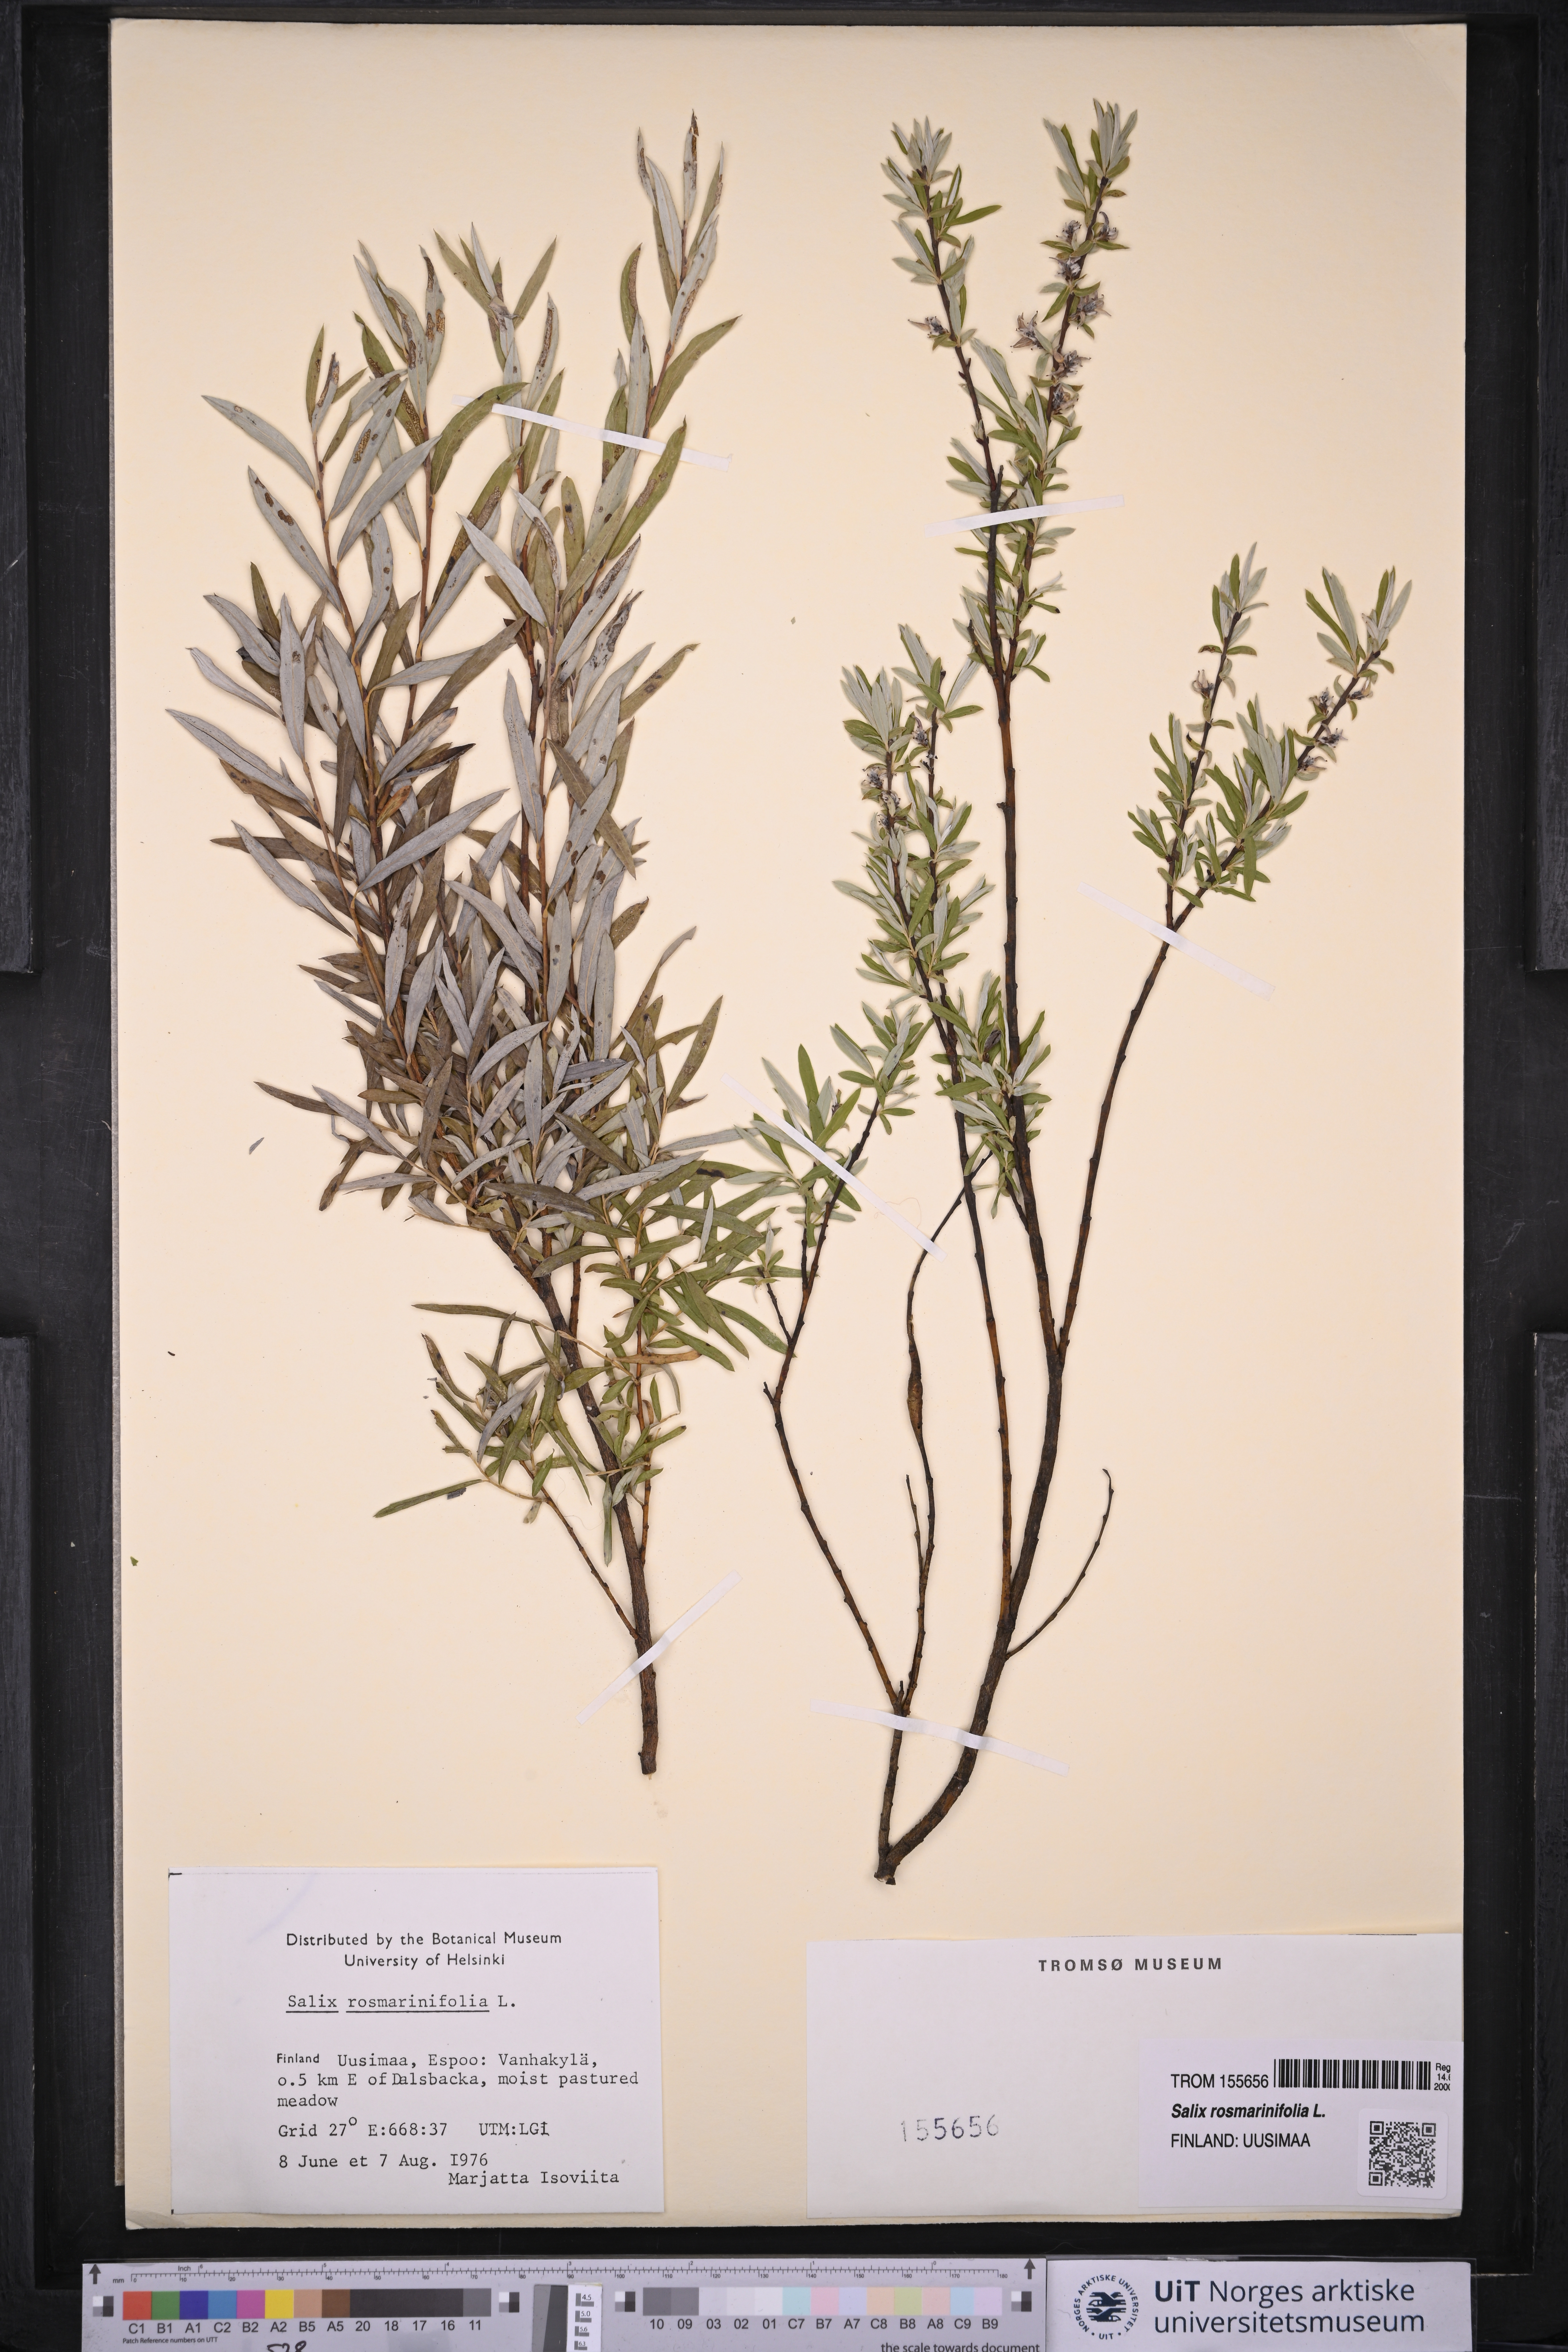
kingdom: Plantae
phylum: Tracheophyta
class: Magnoliopsida
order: Malpighiales
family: Salicaceae
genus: Salix
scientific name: Salix rosmarinifolia
